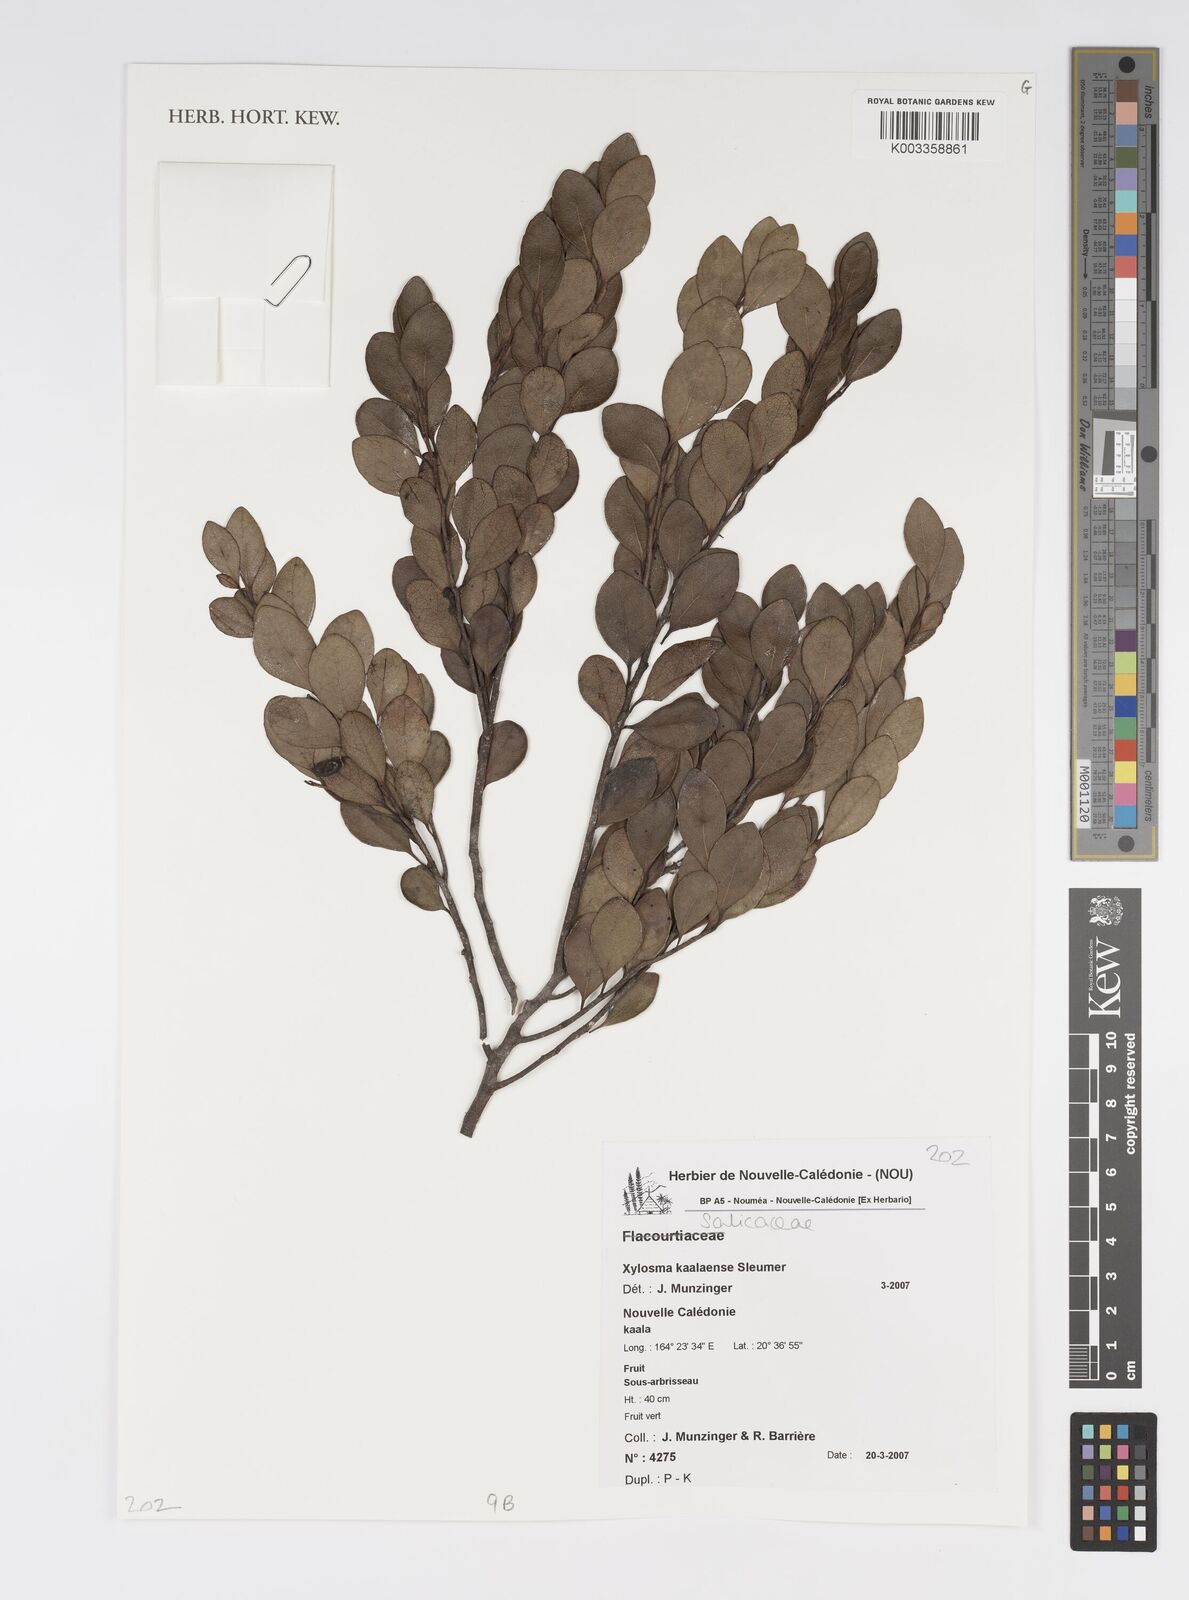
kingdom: Plantae
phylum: Tracheophyta
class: Magnoliopsida
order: Malpighiales
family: Salicaceae
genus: Xylosma
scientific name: Xylosma kaalaensis
